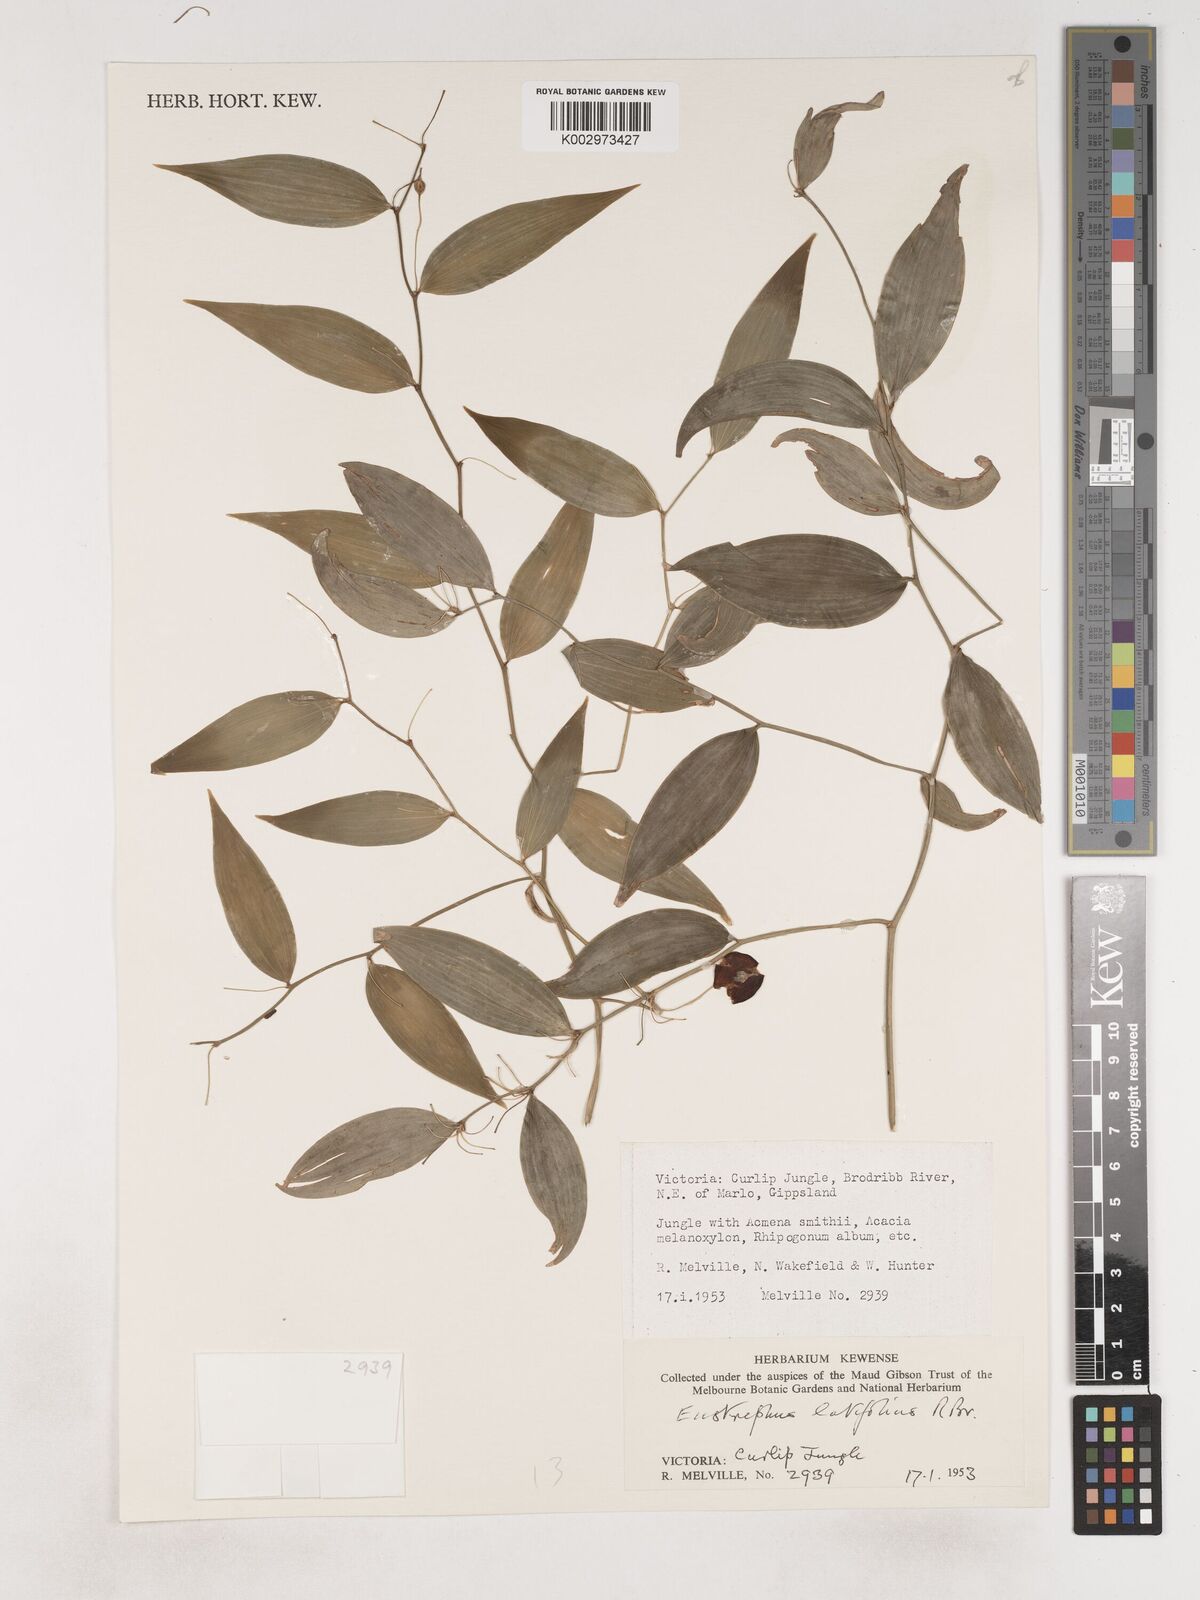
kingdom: Plantae
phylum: Tracheophyta
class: Liliopsida
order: Asparagales
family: Asparagaceae
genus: Eustrephus
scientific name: Eustrephus latifolius
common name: Orangevine
